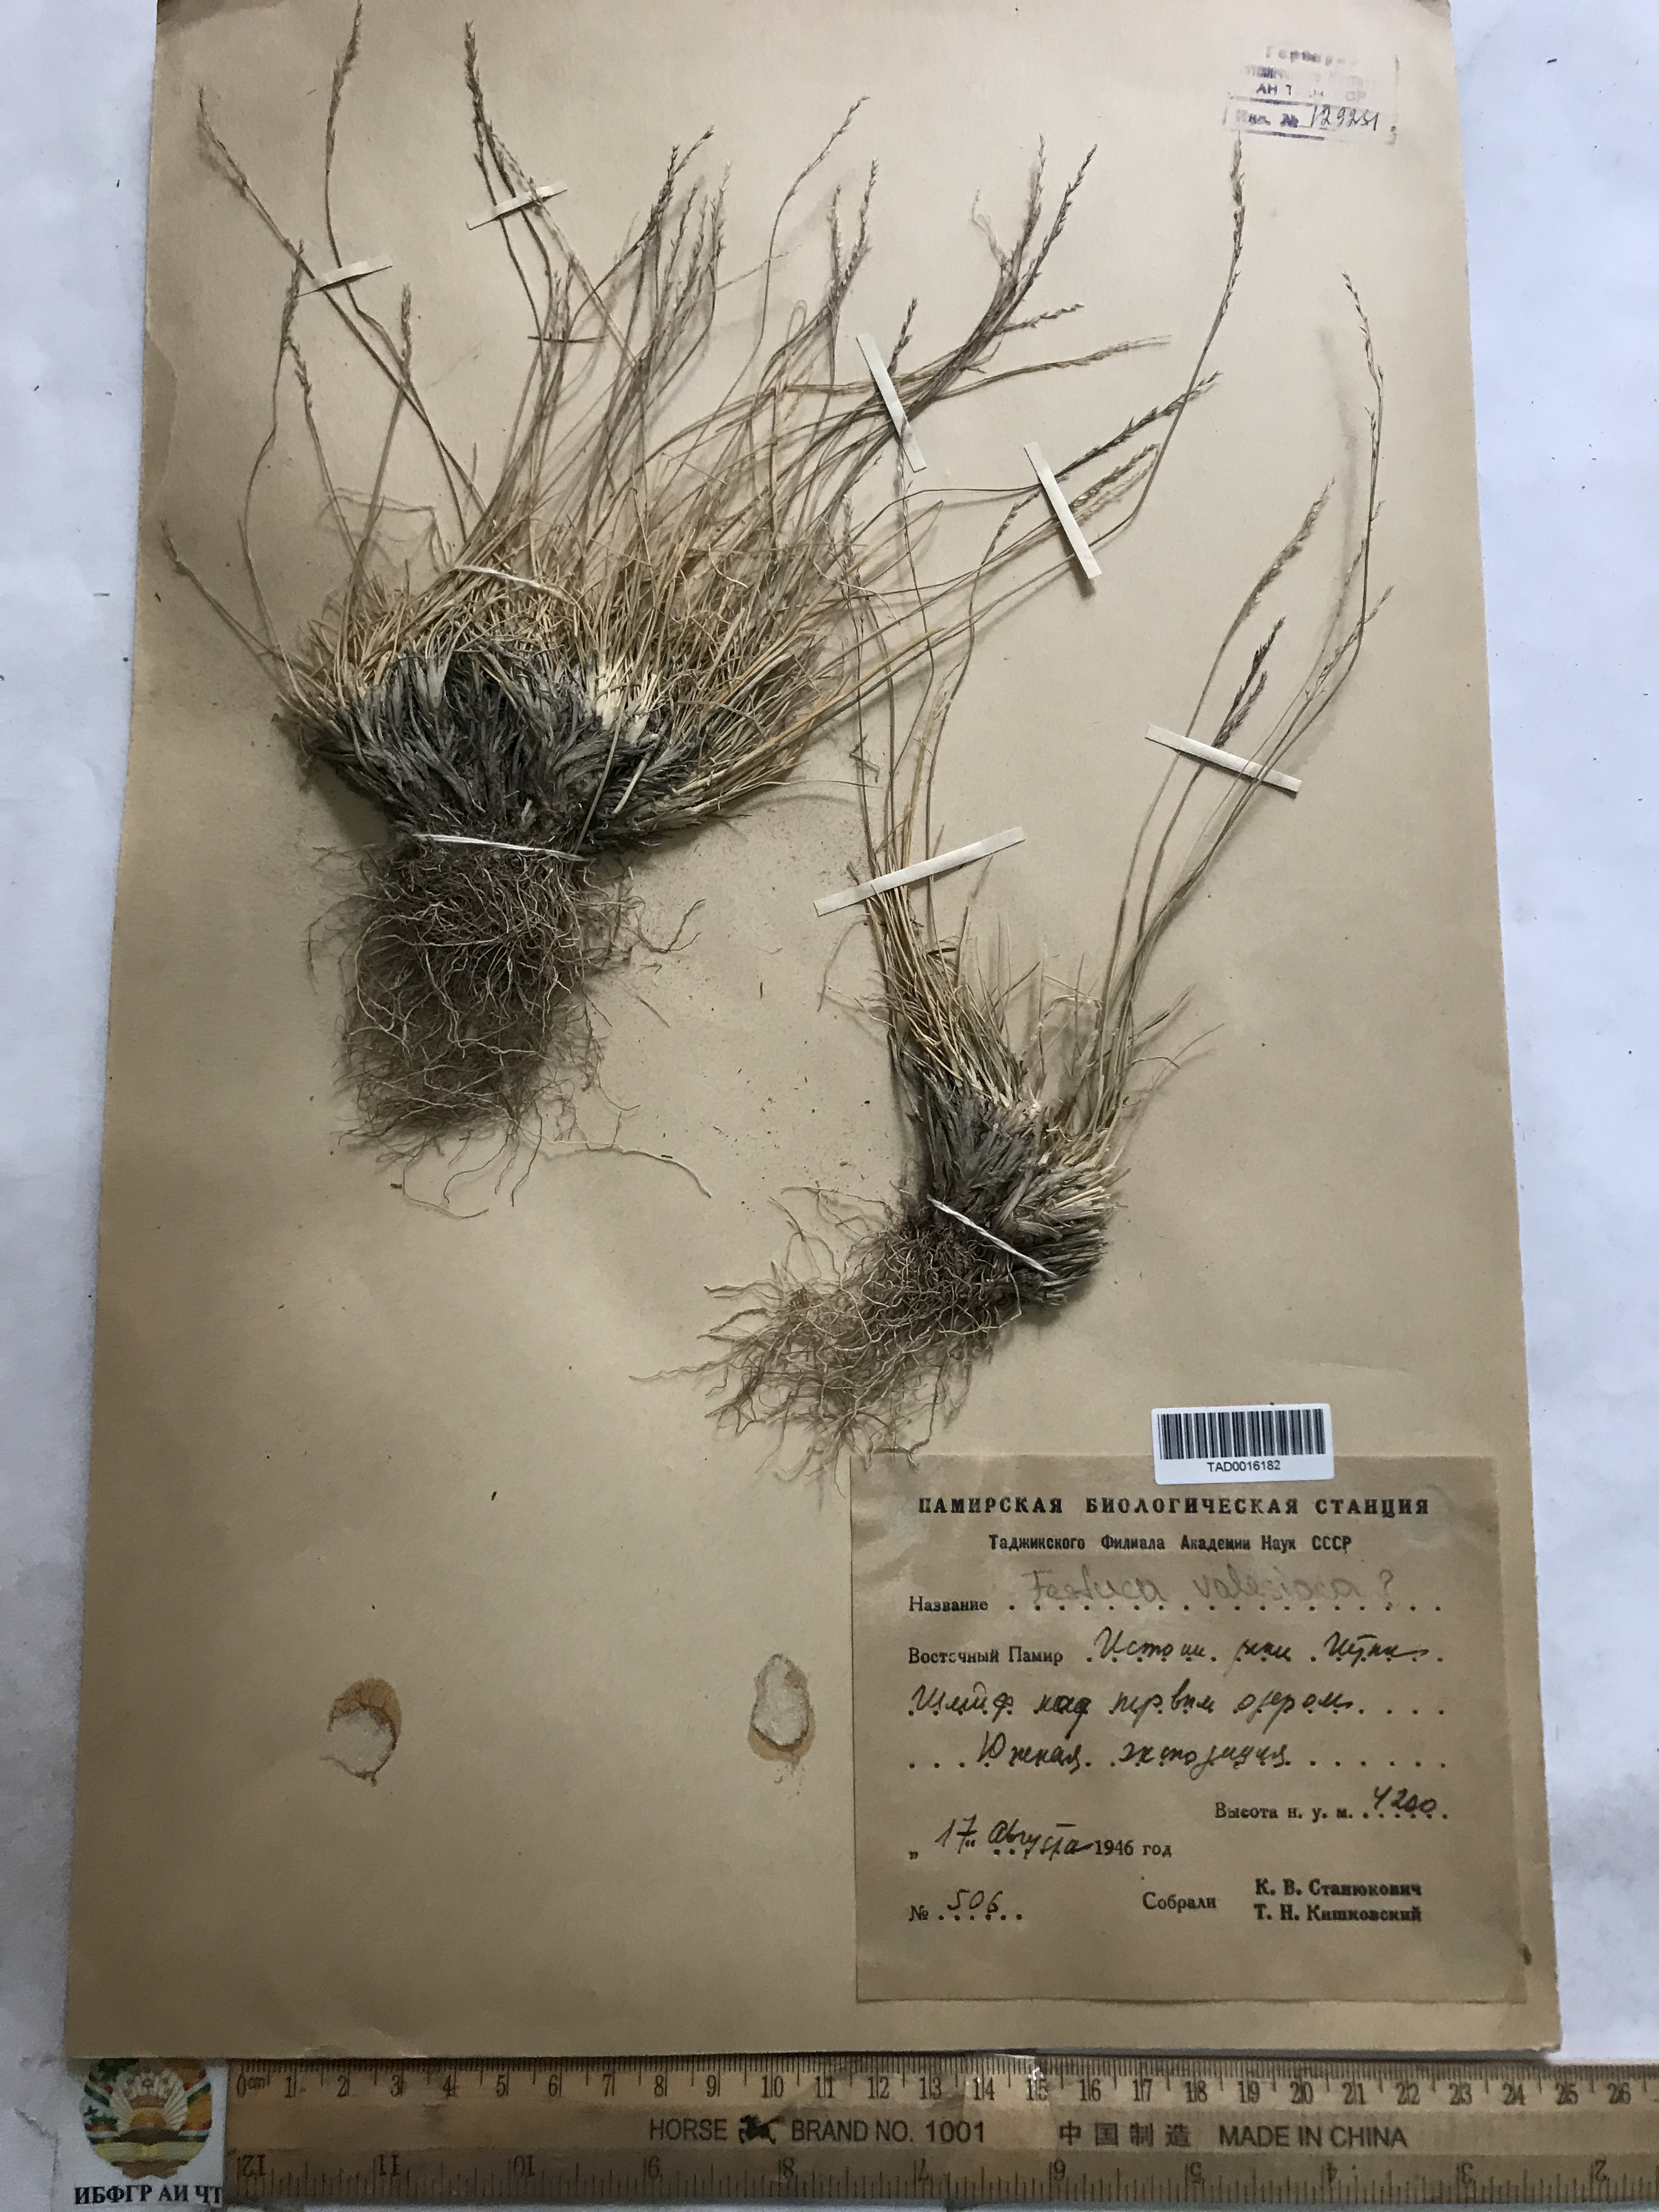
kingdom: Plantae
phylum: Tracheophyta
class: Liliopsida
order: Poales
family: Poaceae
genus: Festuca
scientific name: Festuca valesiaca
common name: Volga fescue
